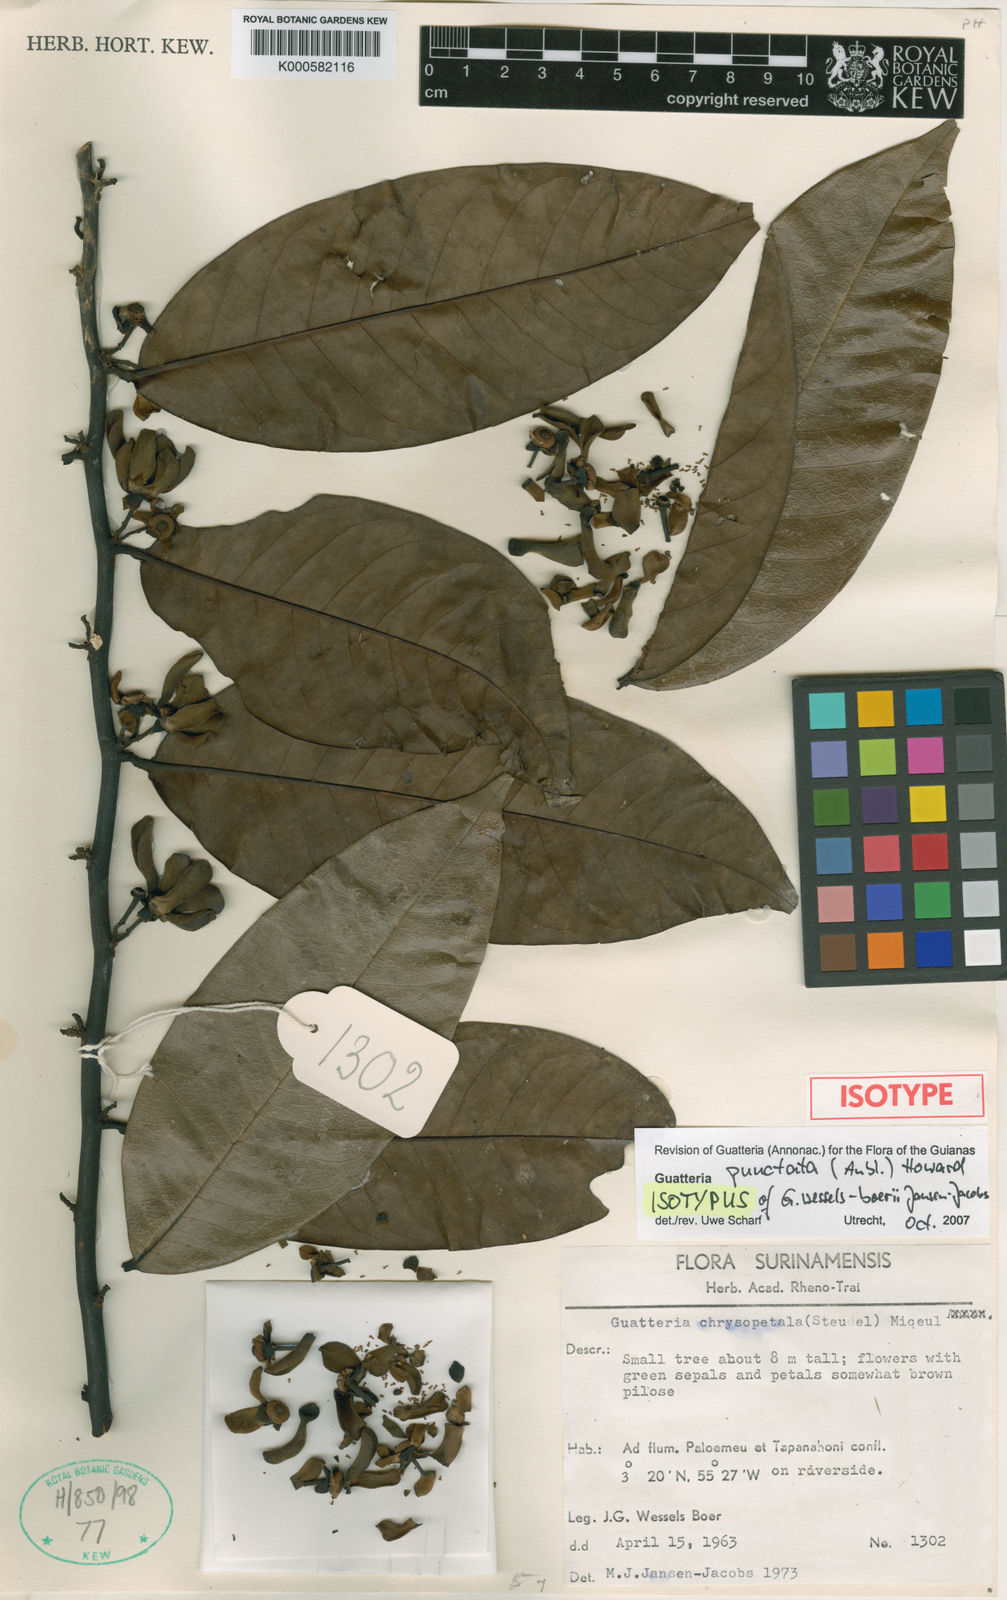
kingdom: Plantae
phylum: Tracheophyta
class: Magnoliopsida
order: Magnoliales
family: Annonaceae
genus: Guatteria
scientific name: Guatteria punctata
